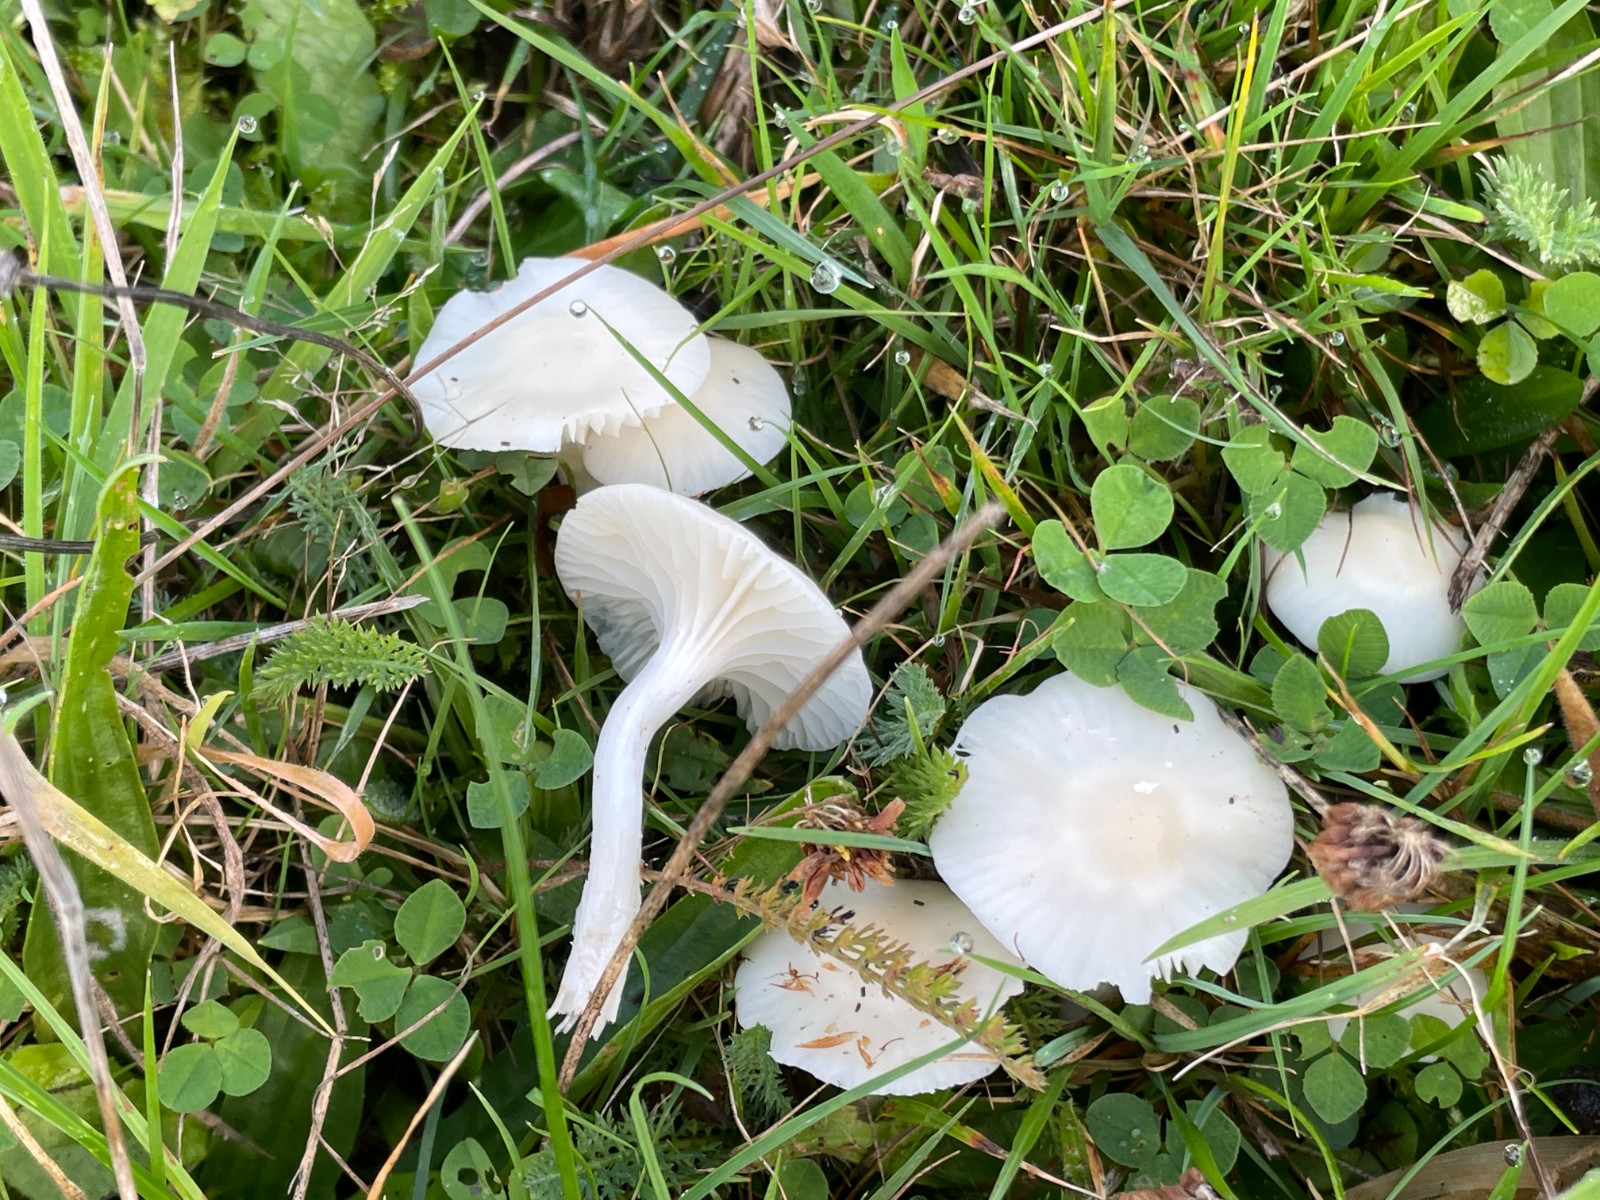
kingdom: Fungi
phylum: Basidiomycota
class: Agaricomycetes
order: Agaricales
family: Hygrophoraceae
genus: Cuphophyllus
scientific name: Cuphophyllus russocoriaceus
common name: ruslæder-vokshat
